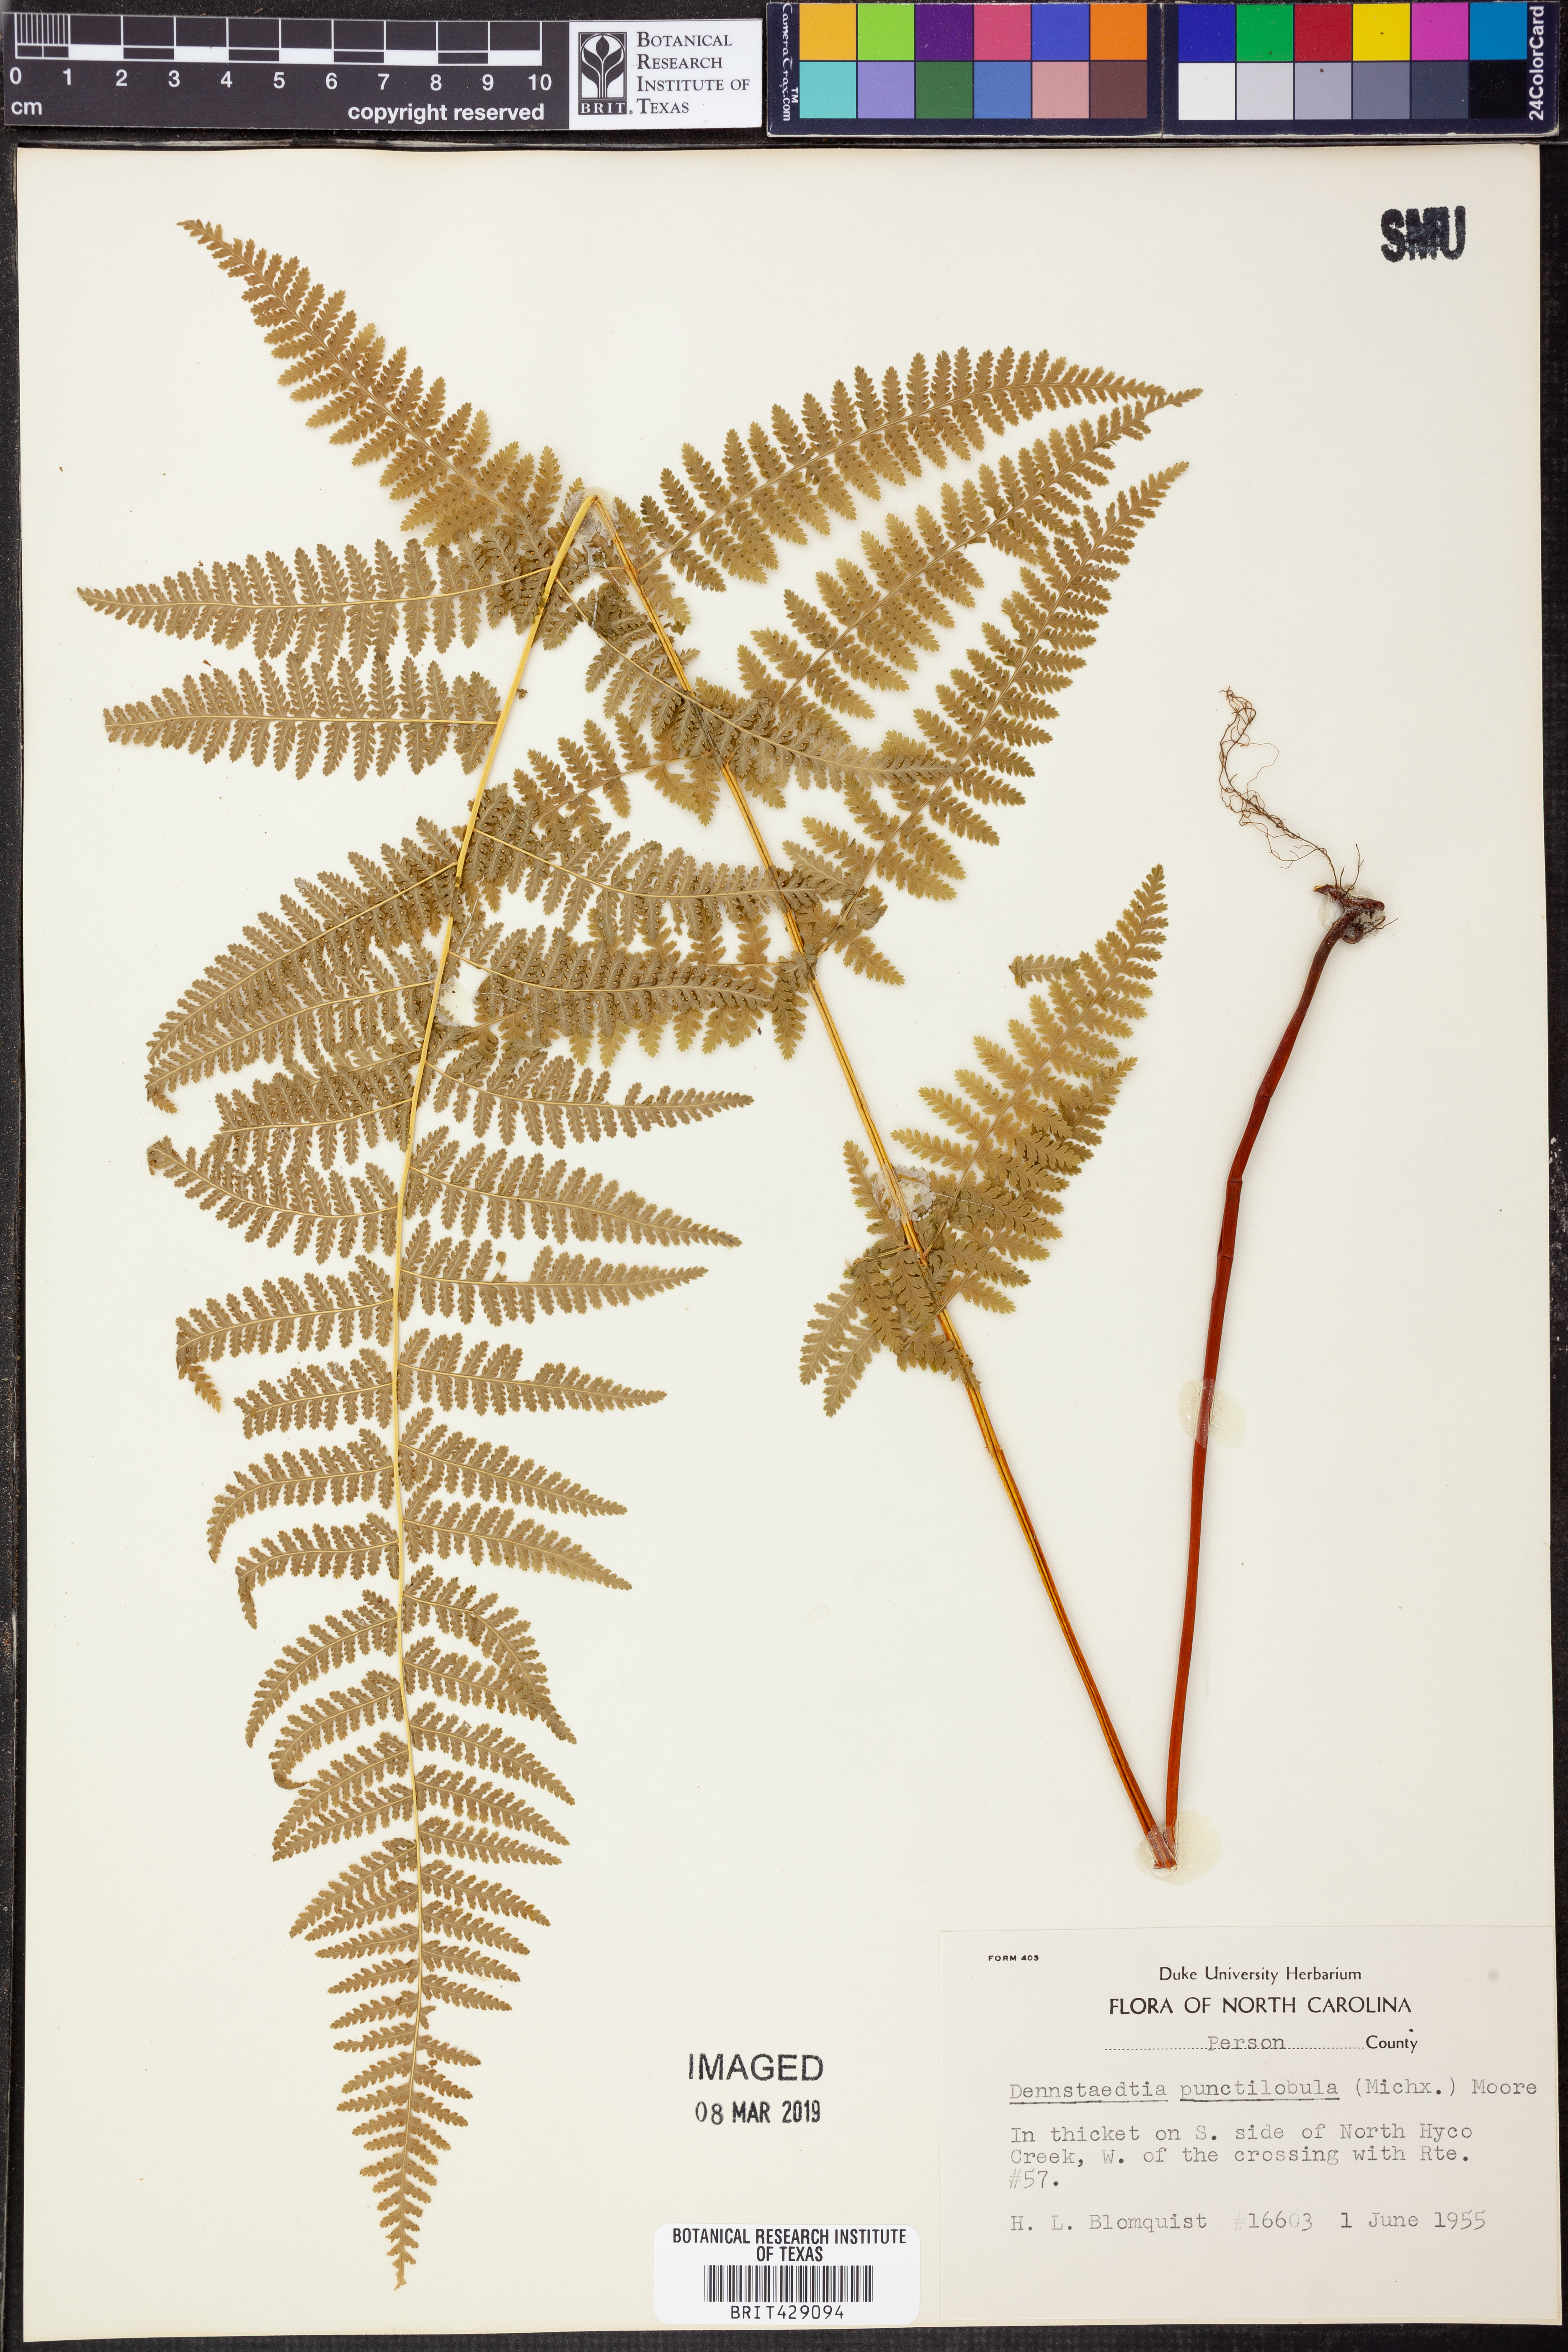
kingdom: Plantae
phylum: Tracheophyta
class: Polypodiopsida
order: Polypodiales
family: Dennstaedtiaceae
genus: Sitobolium
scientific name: Sitobolium punctilobum
